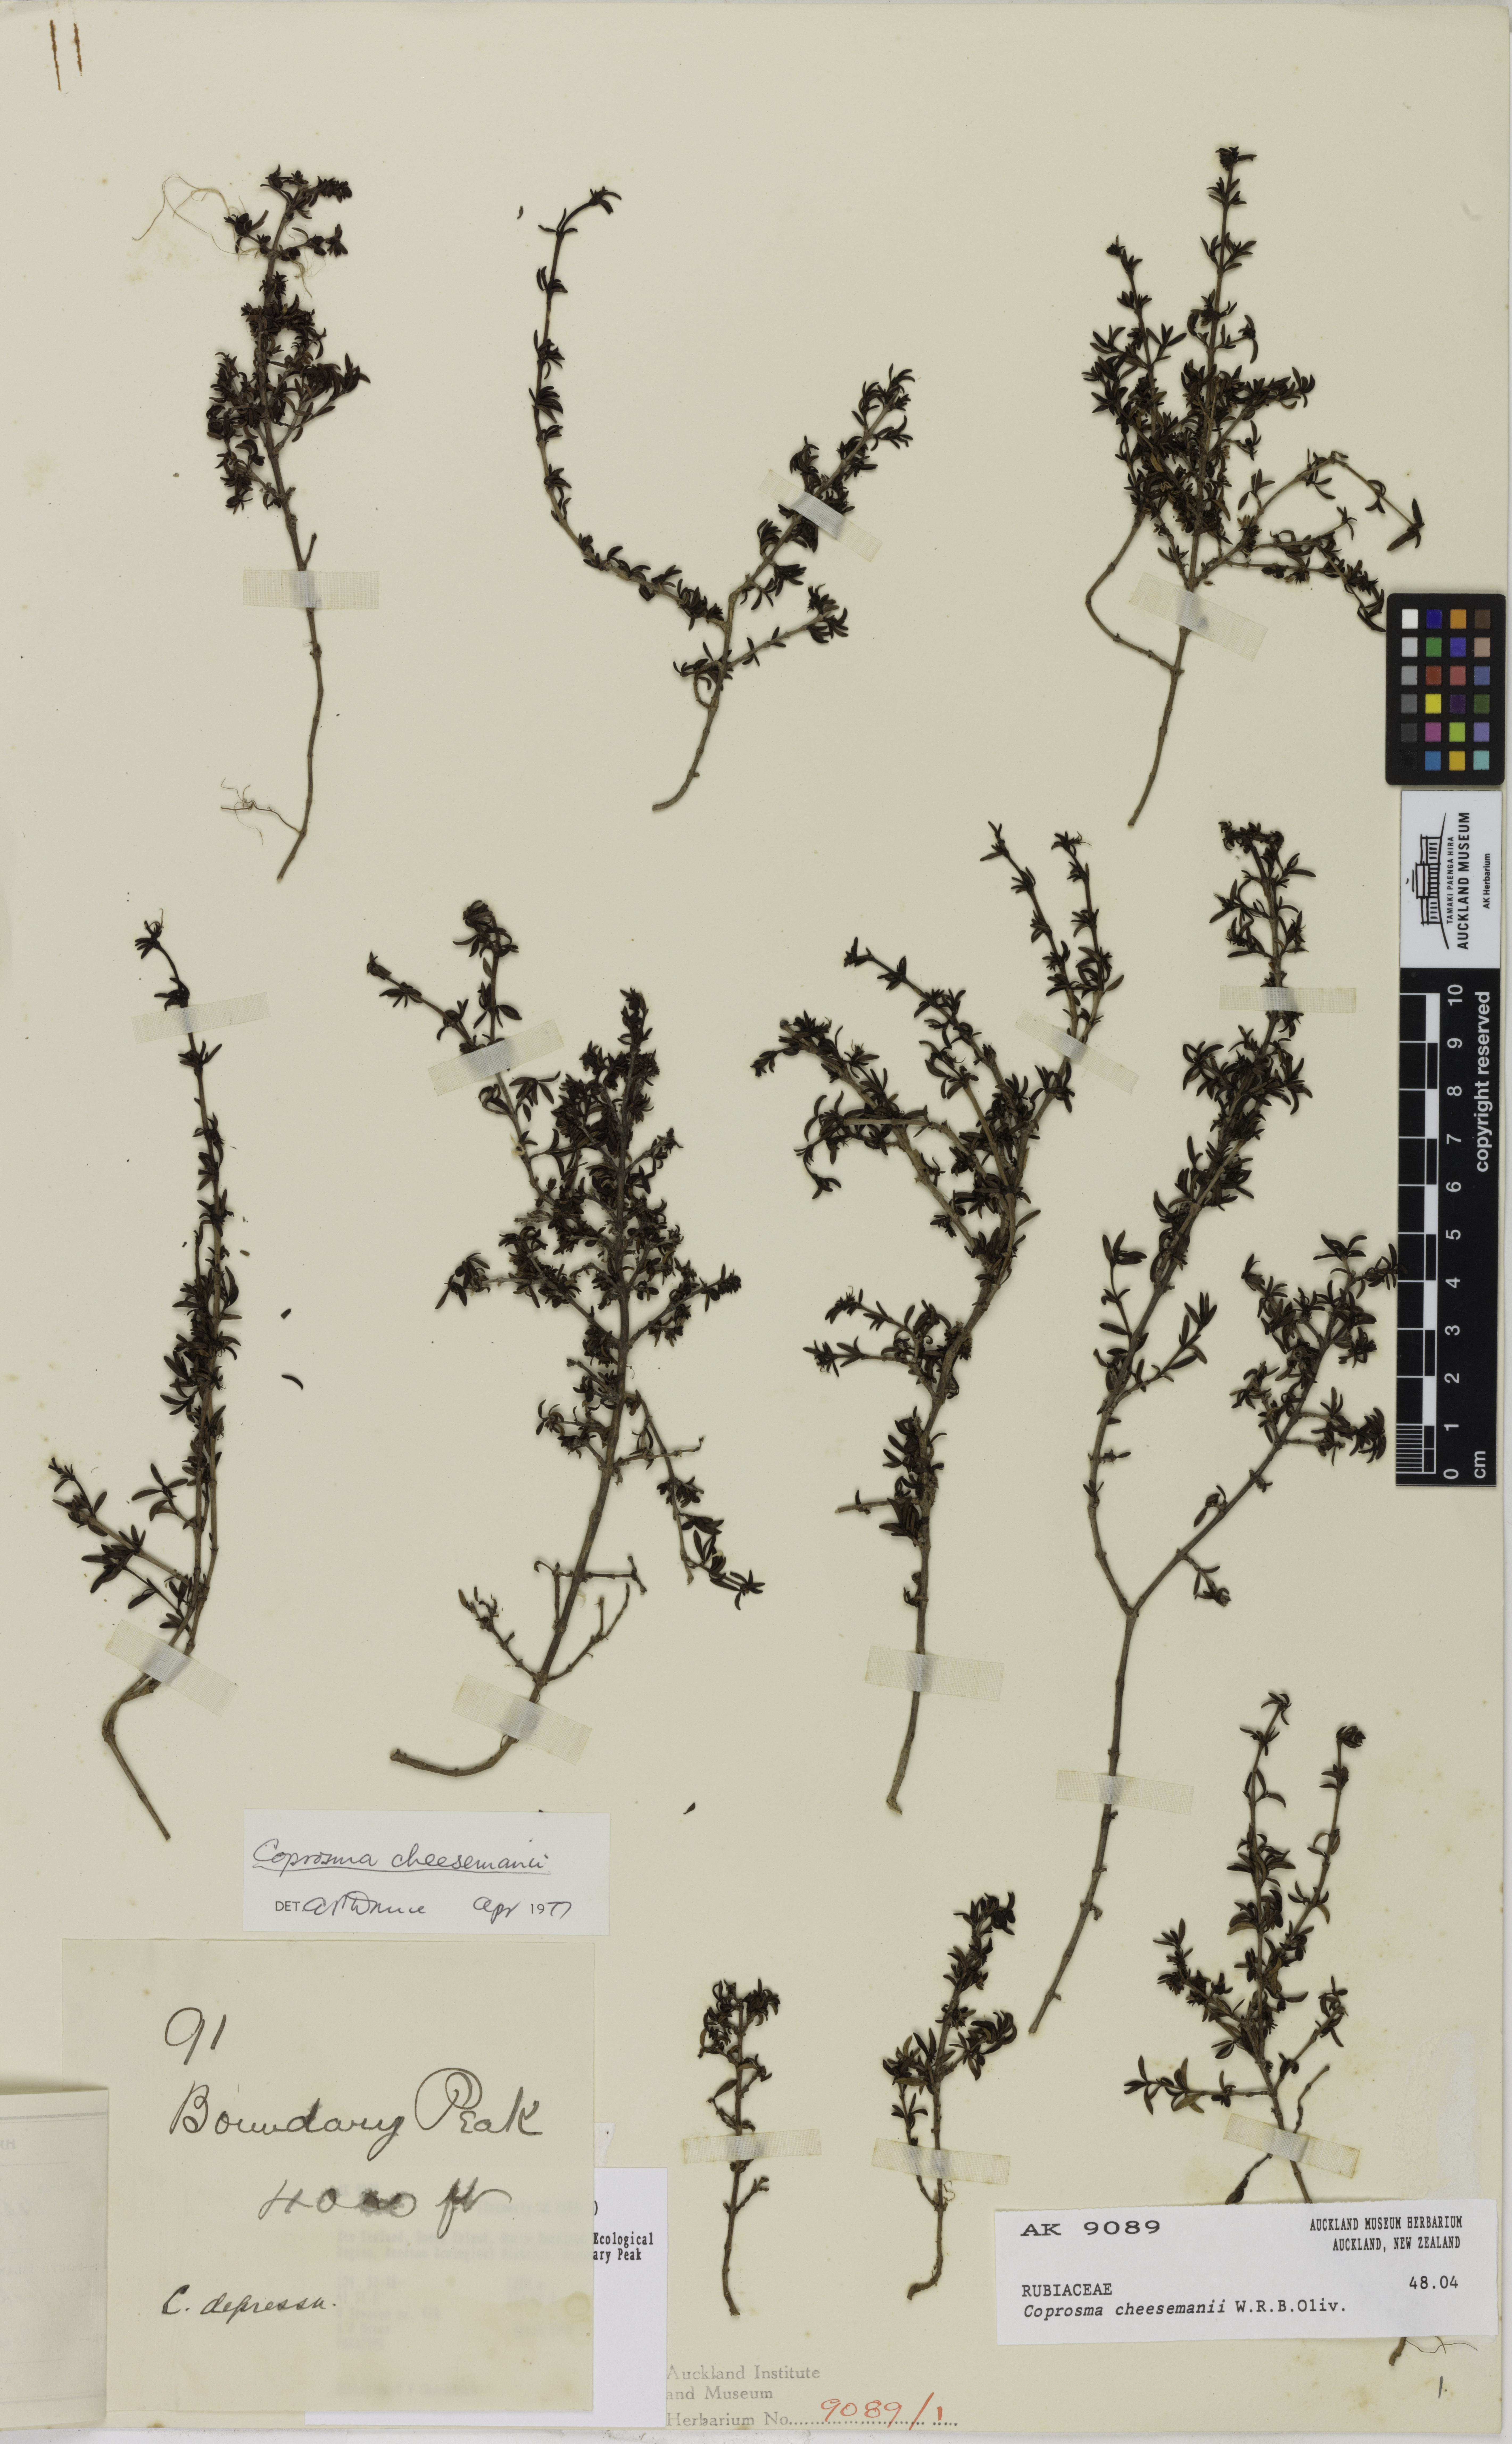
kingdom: Plantae
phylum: Tracheophyta
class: Magnoliopsida
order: Gentianales
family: Rubiaceae
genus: Coprosma
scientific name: Coprosma cheesemanii
